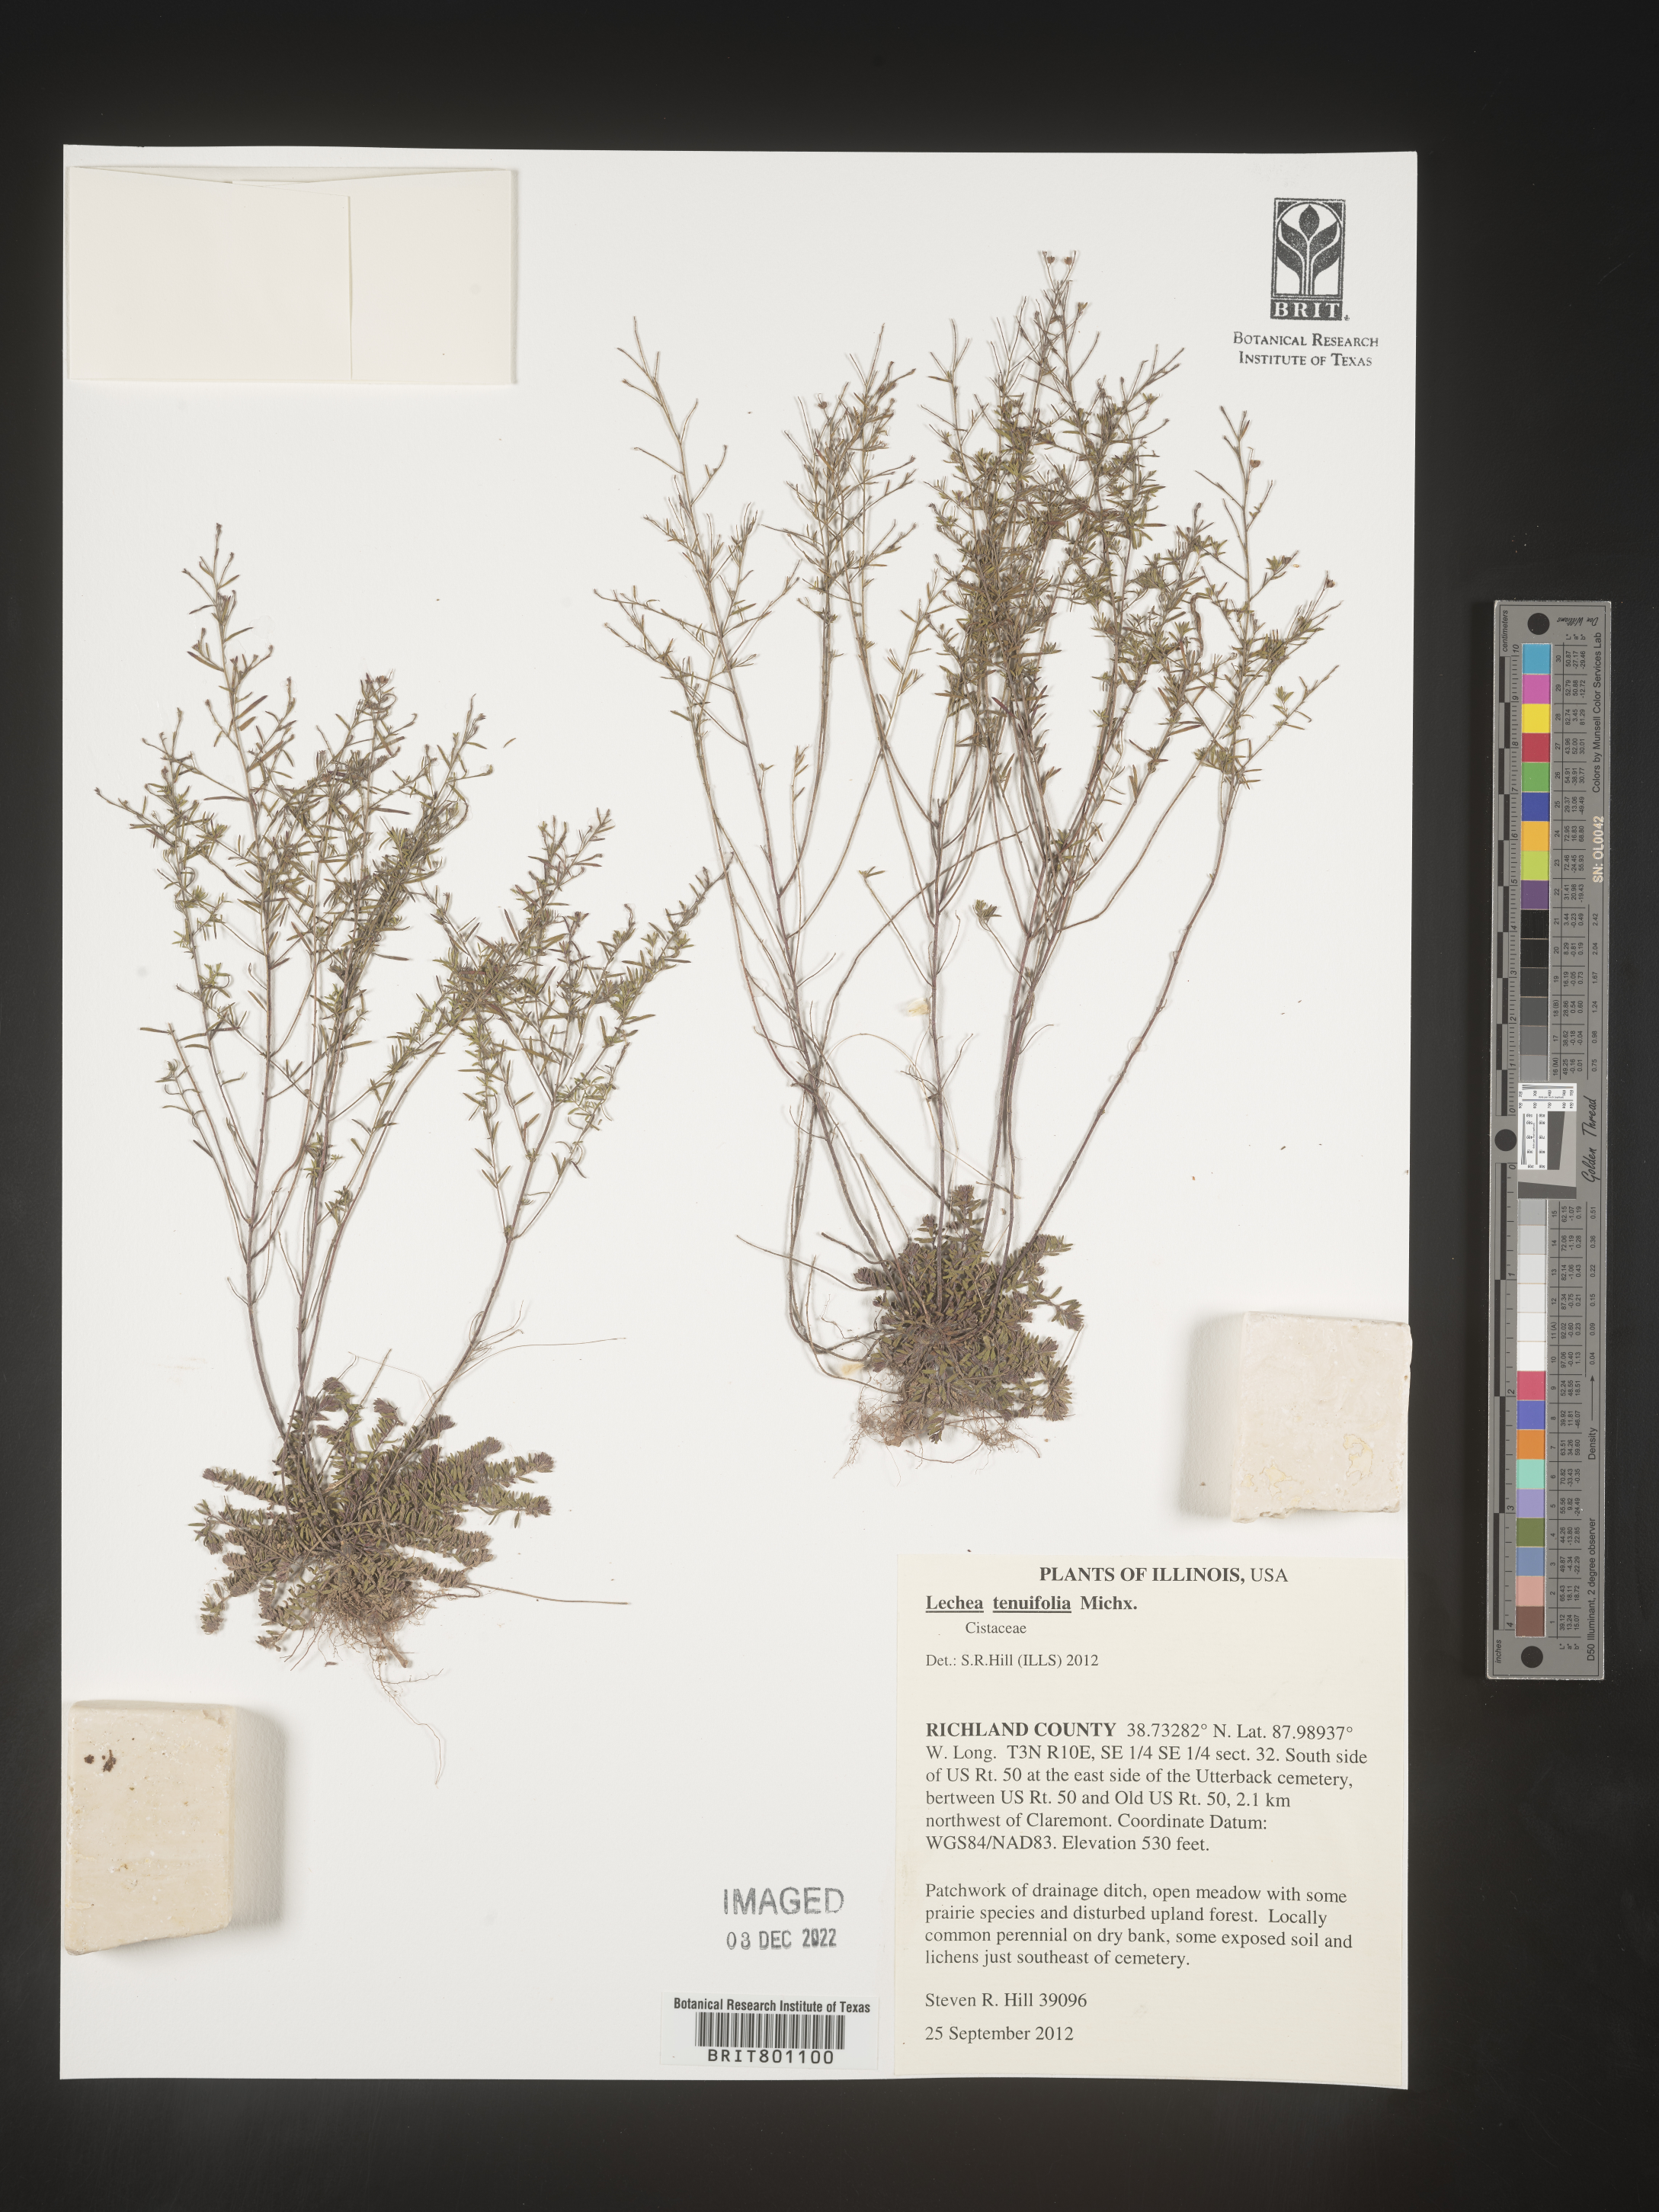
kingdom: Plantae
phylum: Tracheophyta
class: Magnoliopsida
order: Malvales
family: Cistaceae
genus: Lechea
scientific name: Lechea tenuifolia
